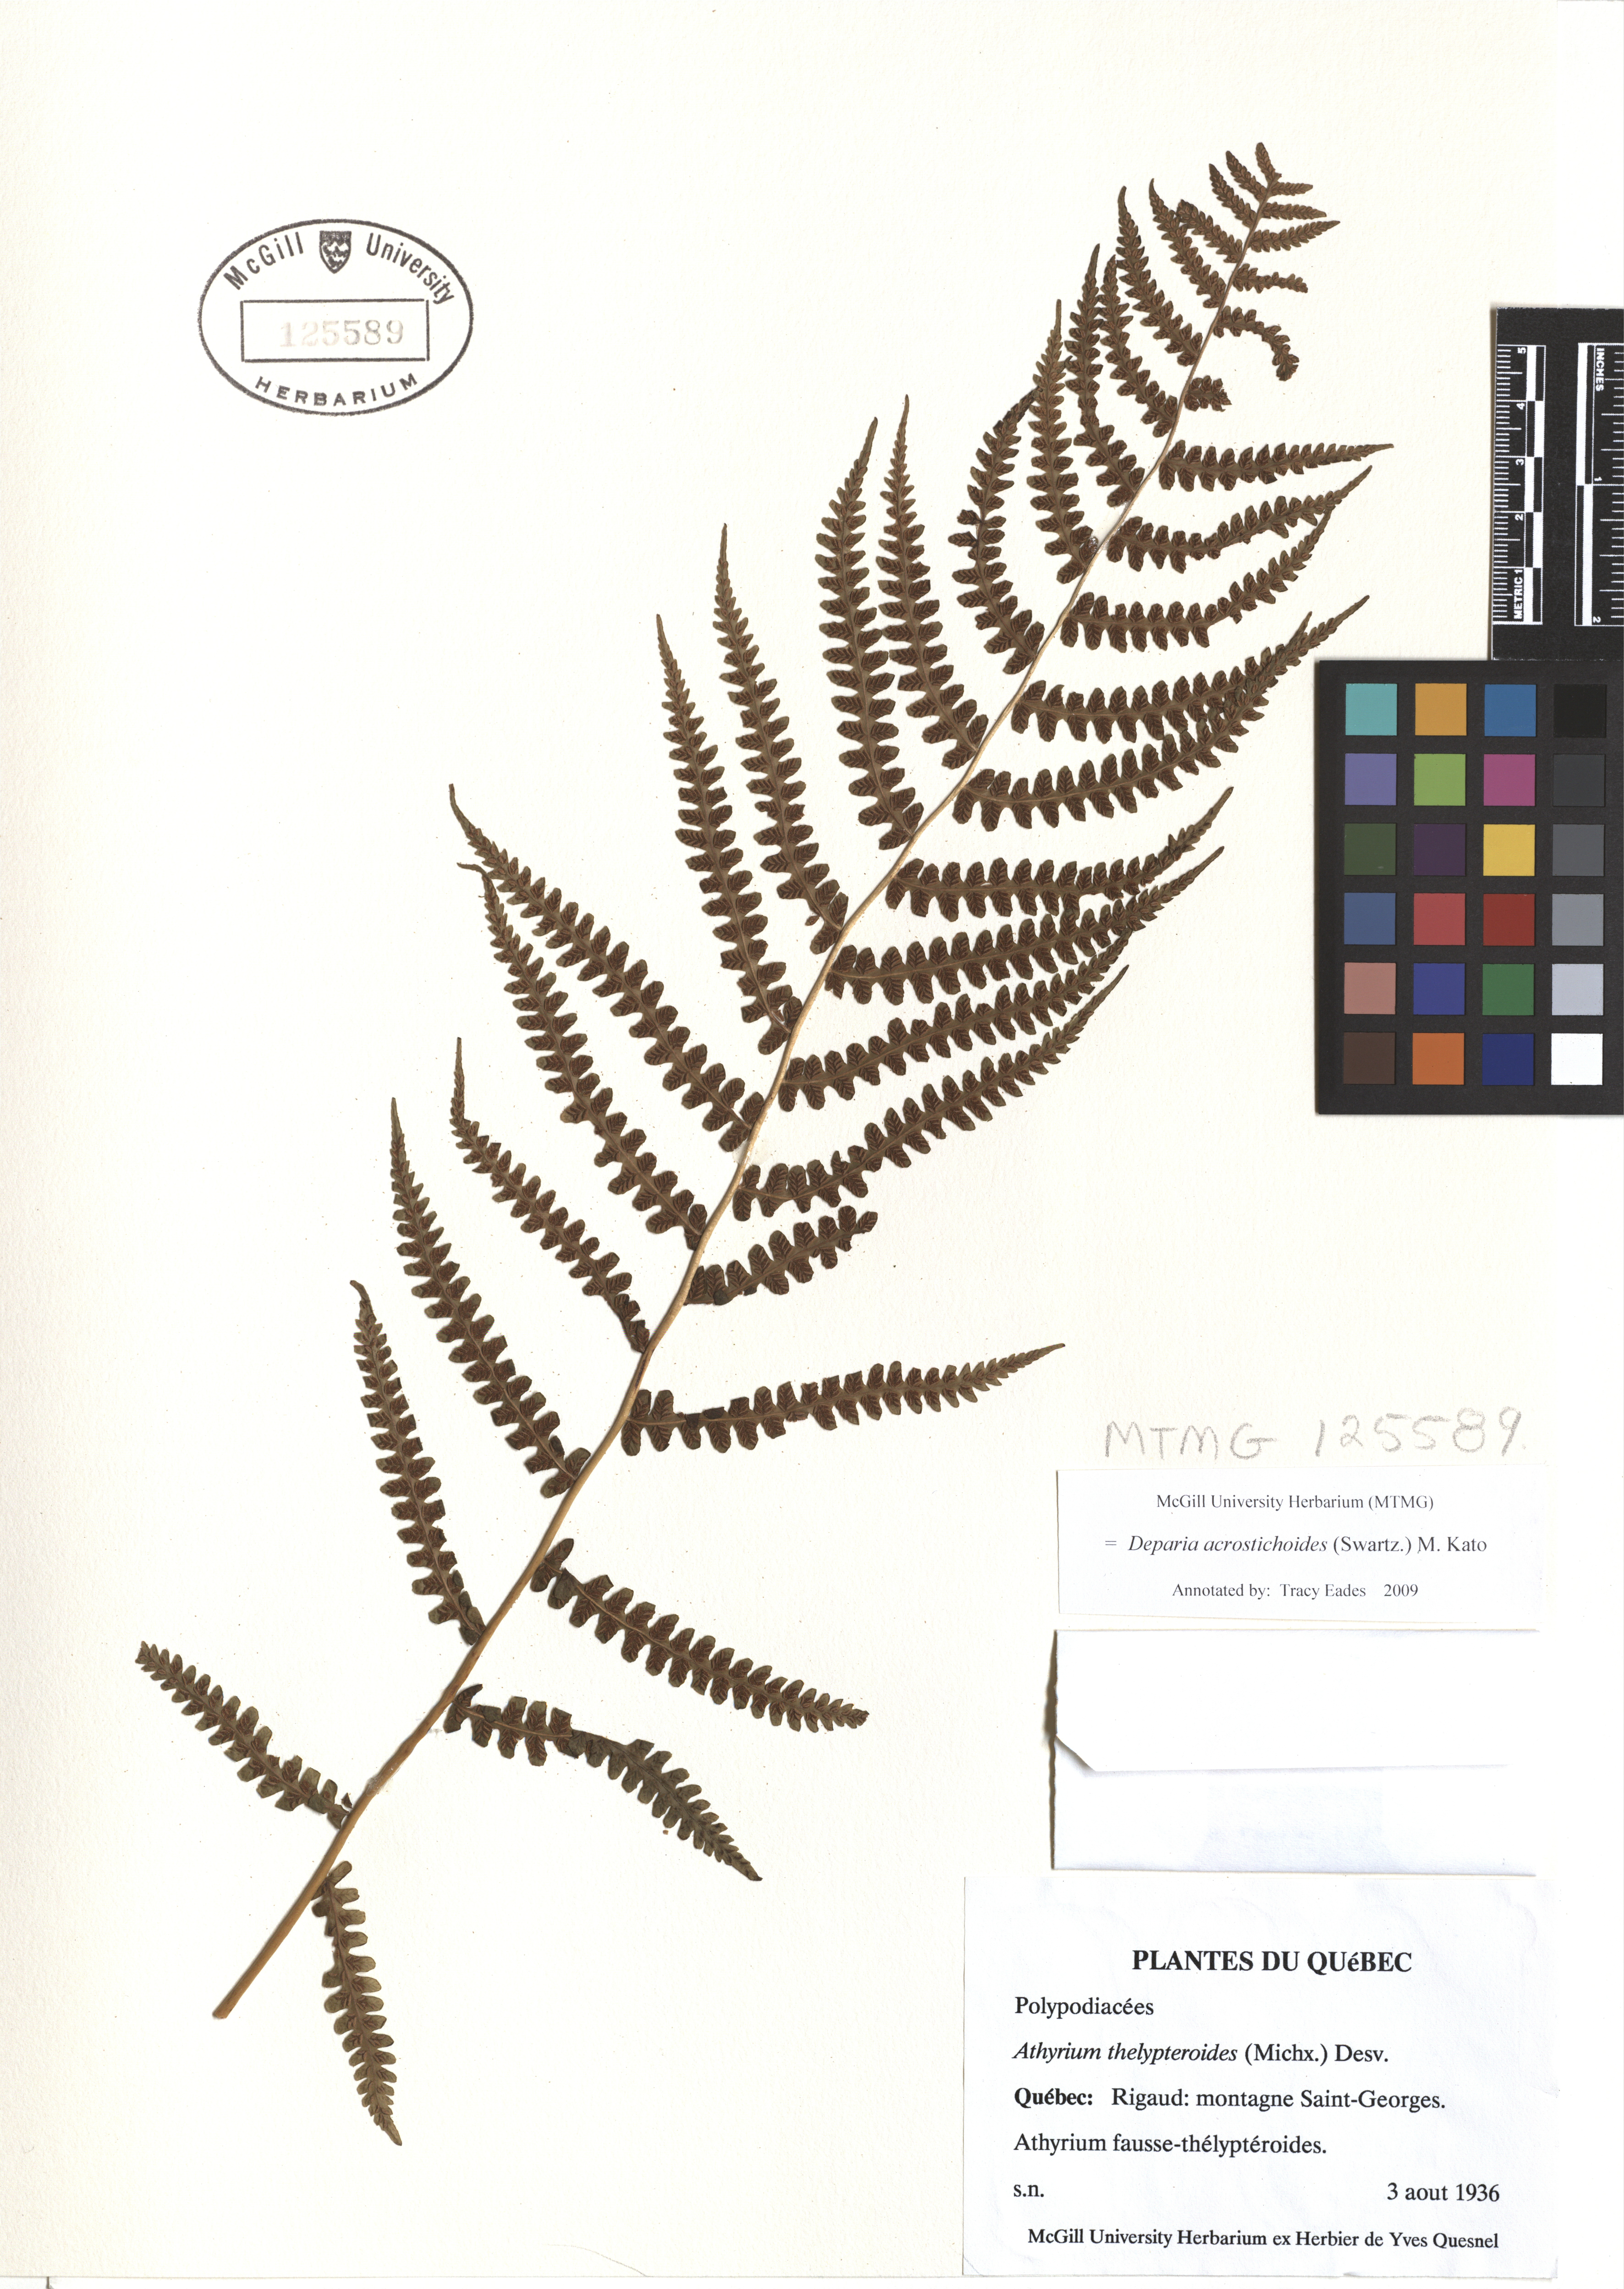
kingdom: Plantae
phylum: Tracheophyta
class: Polypodiopsida
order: Polypodiales
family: Athyriaceae
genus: Deparia
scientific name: Deparia acrostichoides
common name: Silver false spleenwort
